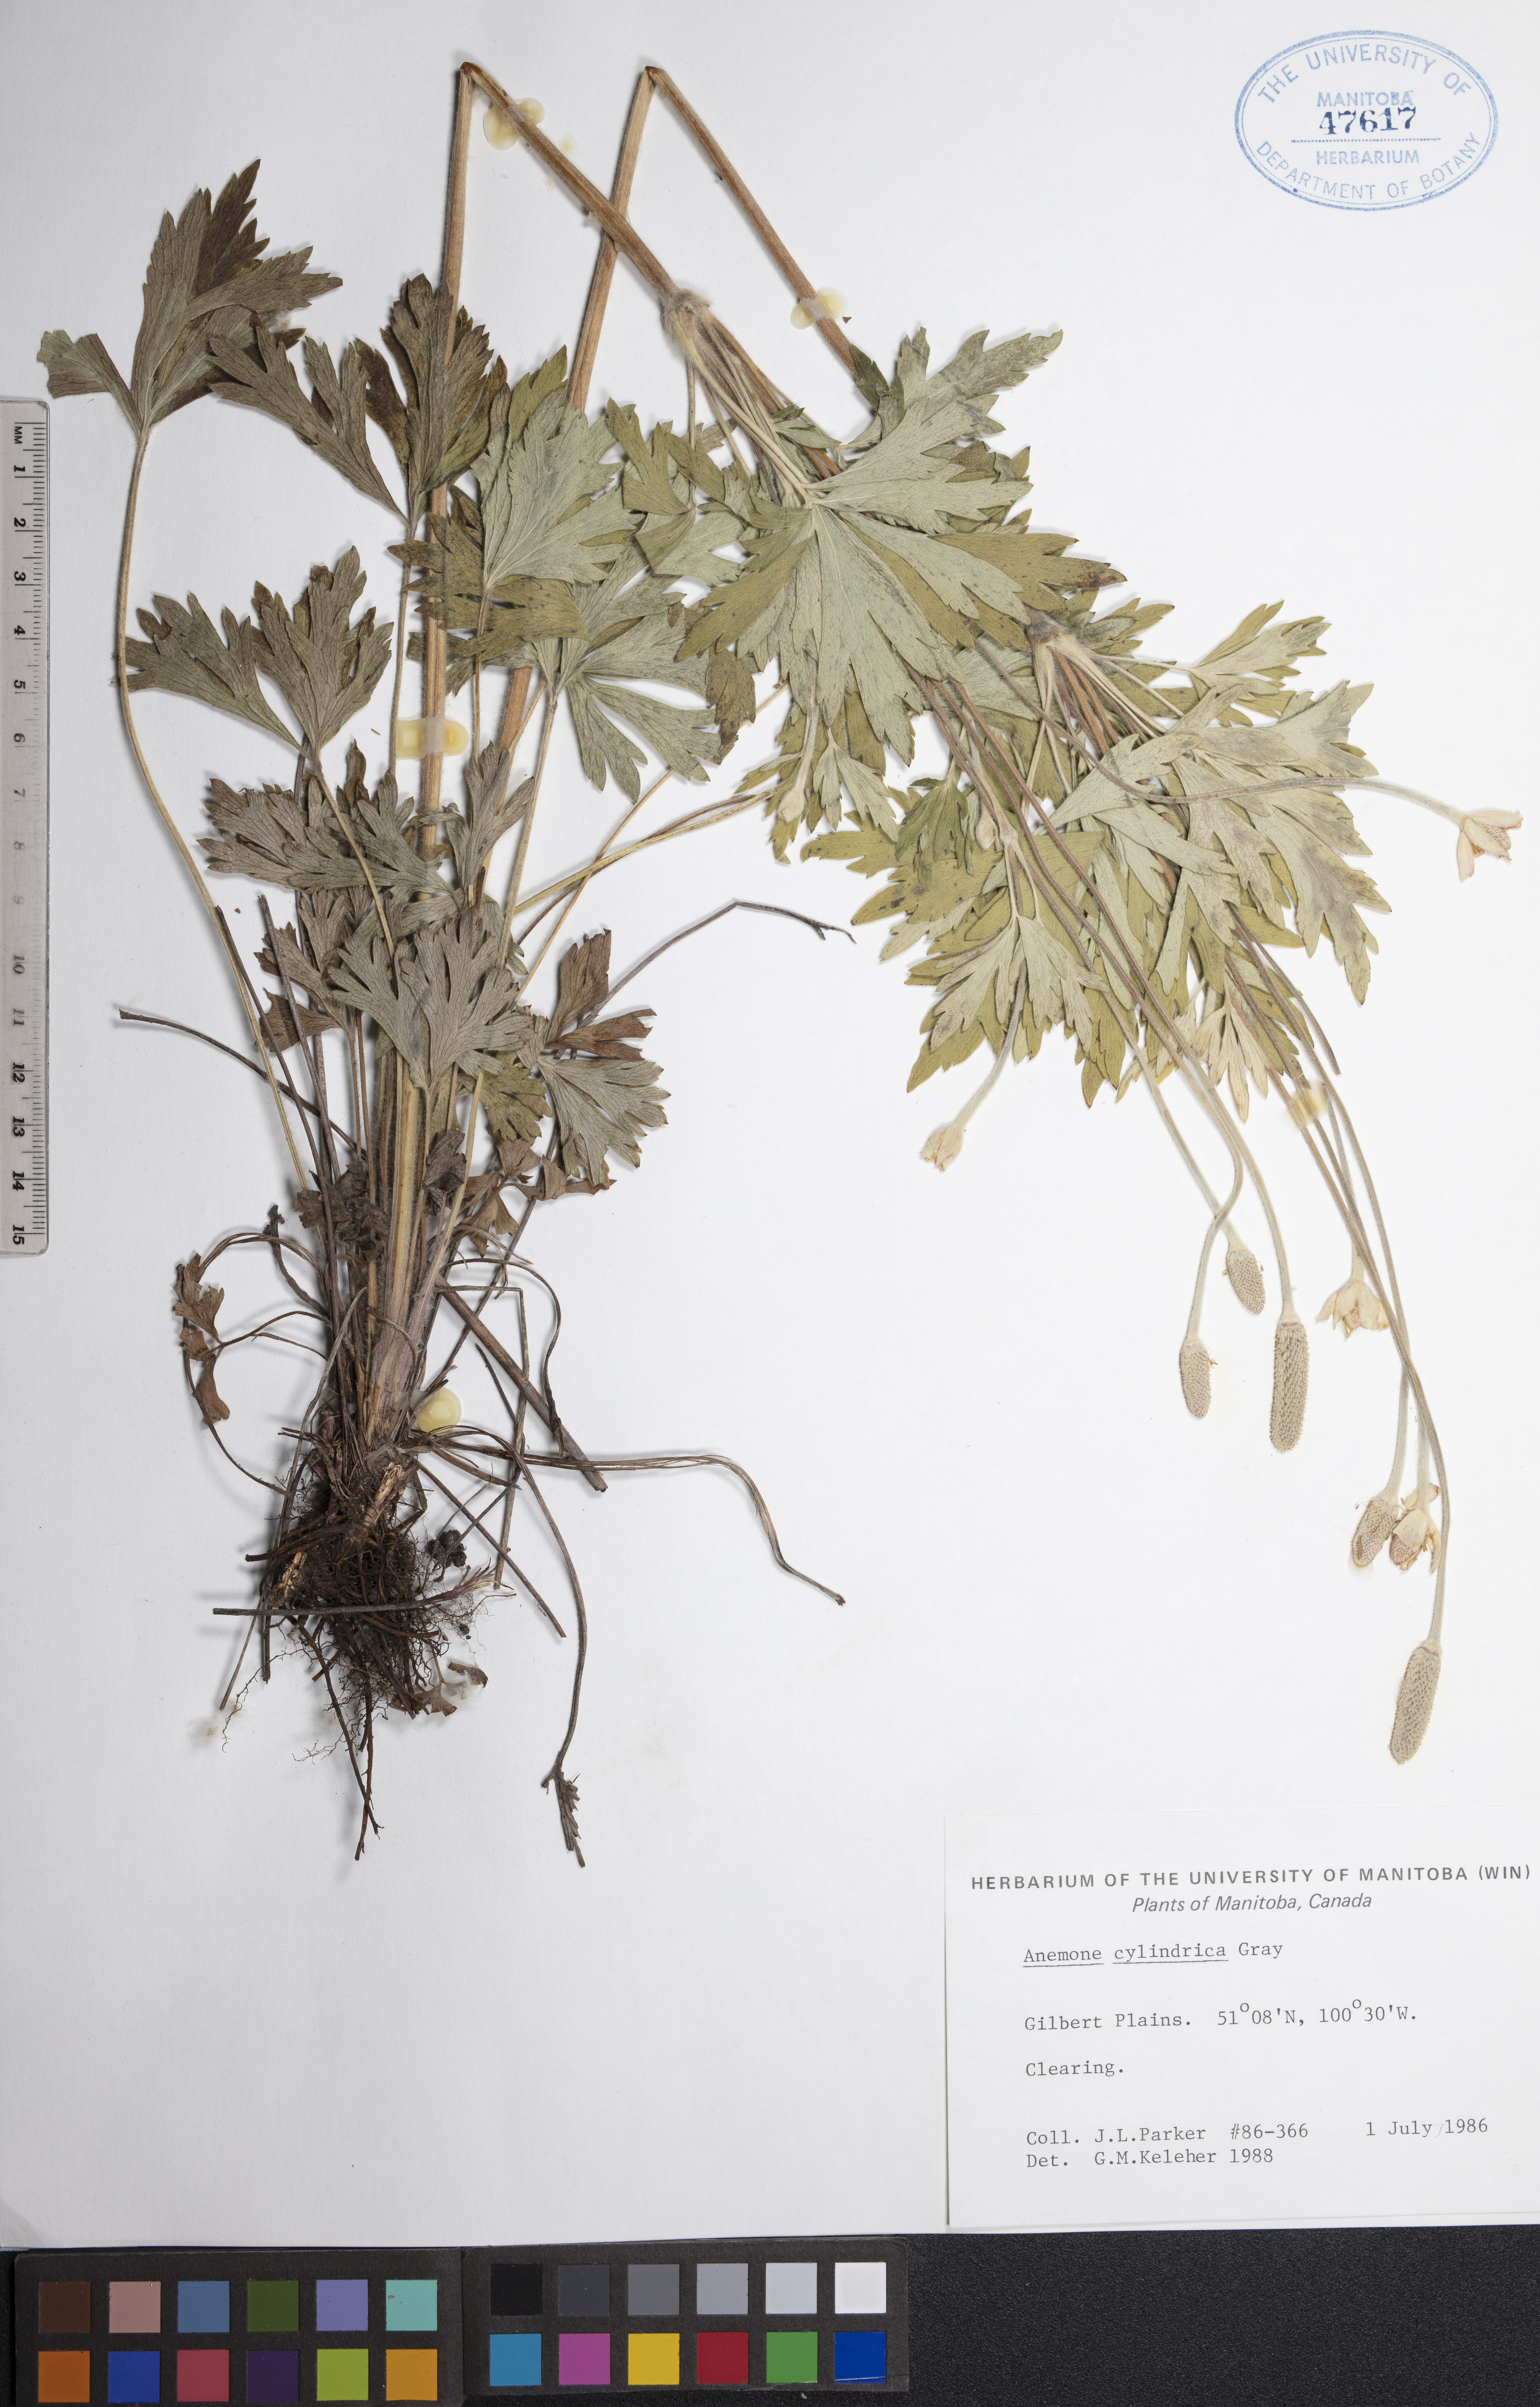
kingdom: Plantae
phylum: Tracheophyta
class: Magnoliopsida
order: Ranunculales
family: Ranunculaceae
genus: Anemone
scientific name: Anemone cylindrica
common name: Candle anemone
